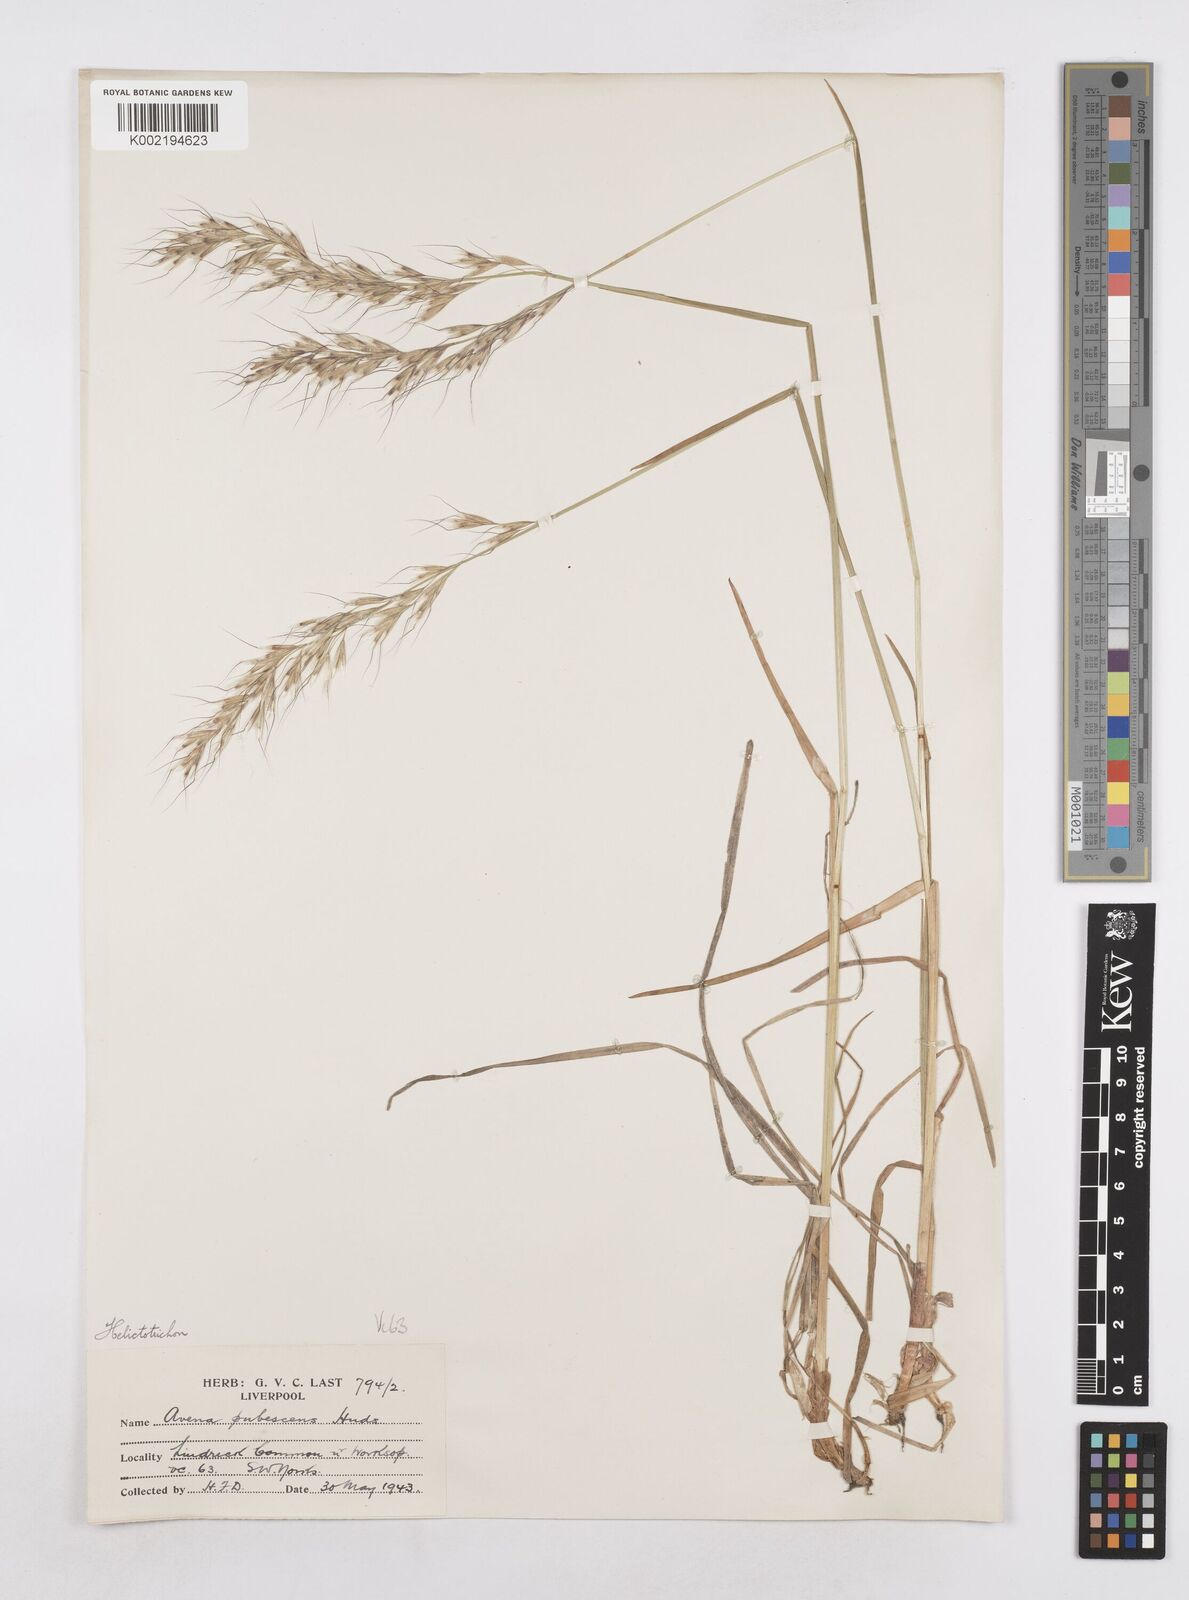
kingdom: Plantae
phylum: Tracheophyta
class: Liliopsida
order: Poales
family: Poaceae
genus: Avenula
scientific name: Avenula pubescens
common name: Downy alpine oatgrass
